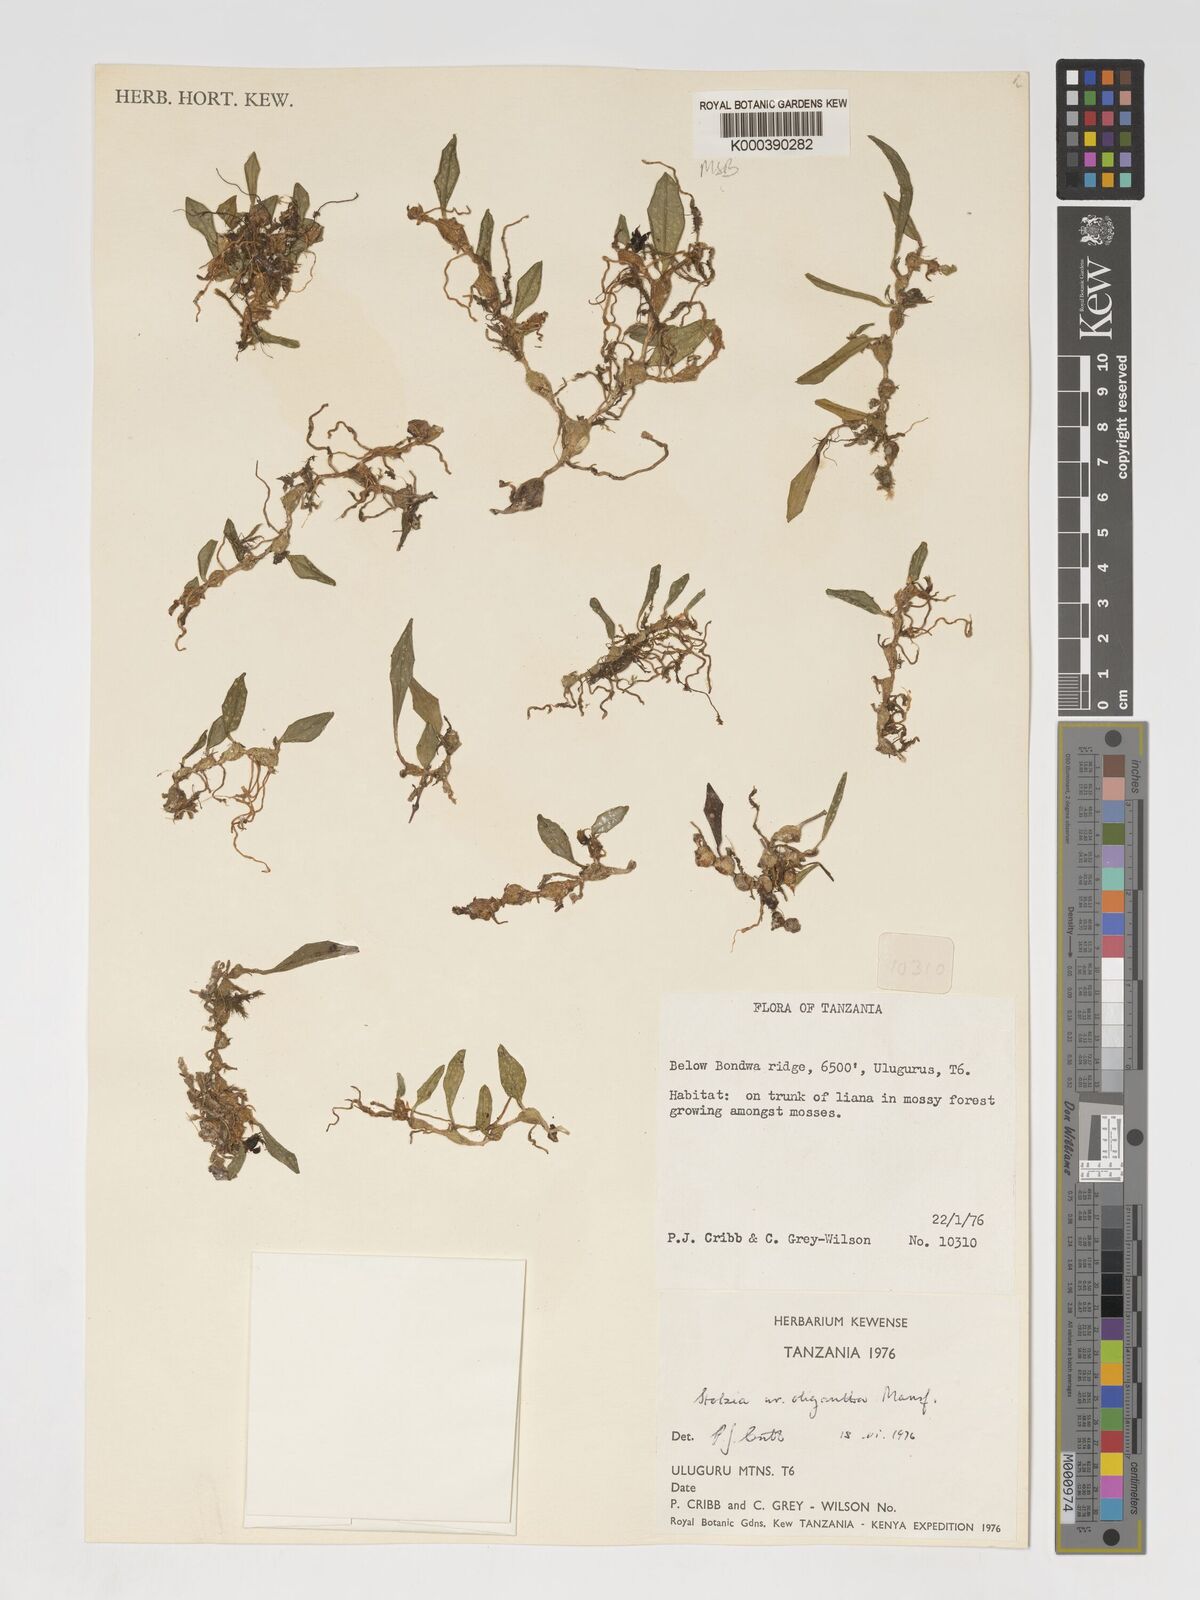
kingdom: Plantae
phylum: Tracheophyta
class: Liliopsida
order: Asparagales
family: Orchidaceae
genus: Porpax
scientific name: Porpax moniliformis
